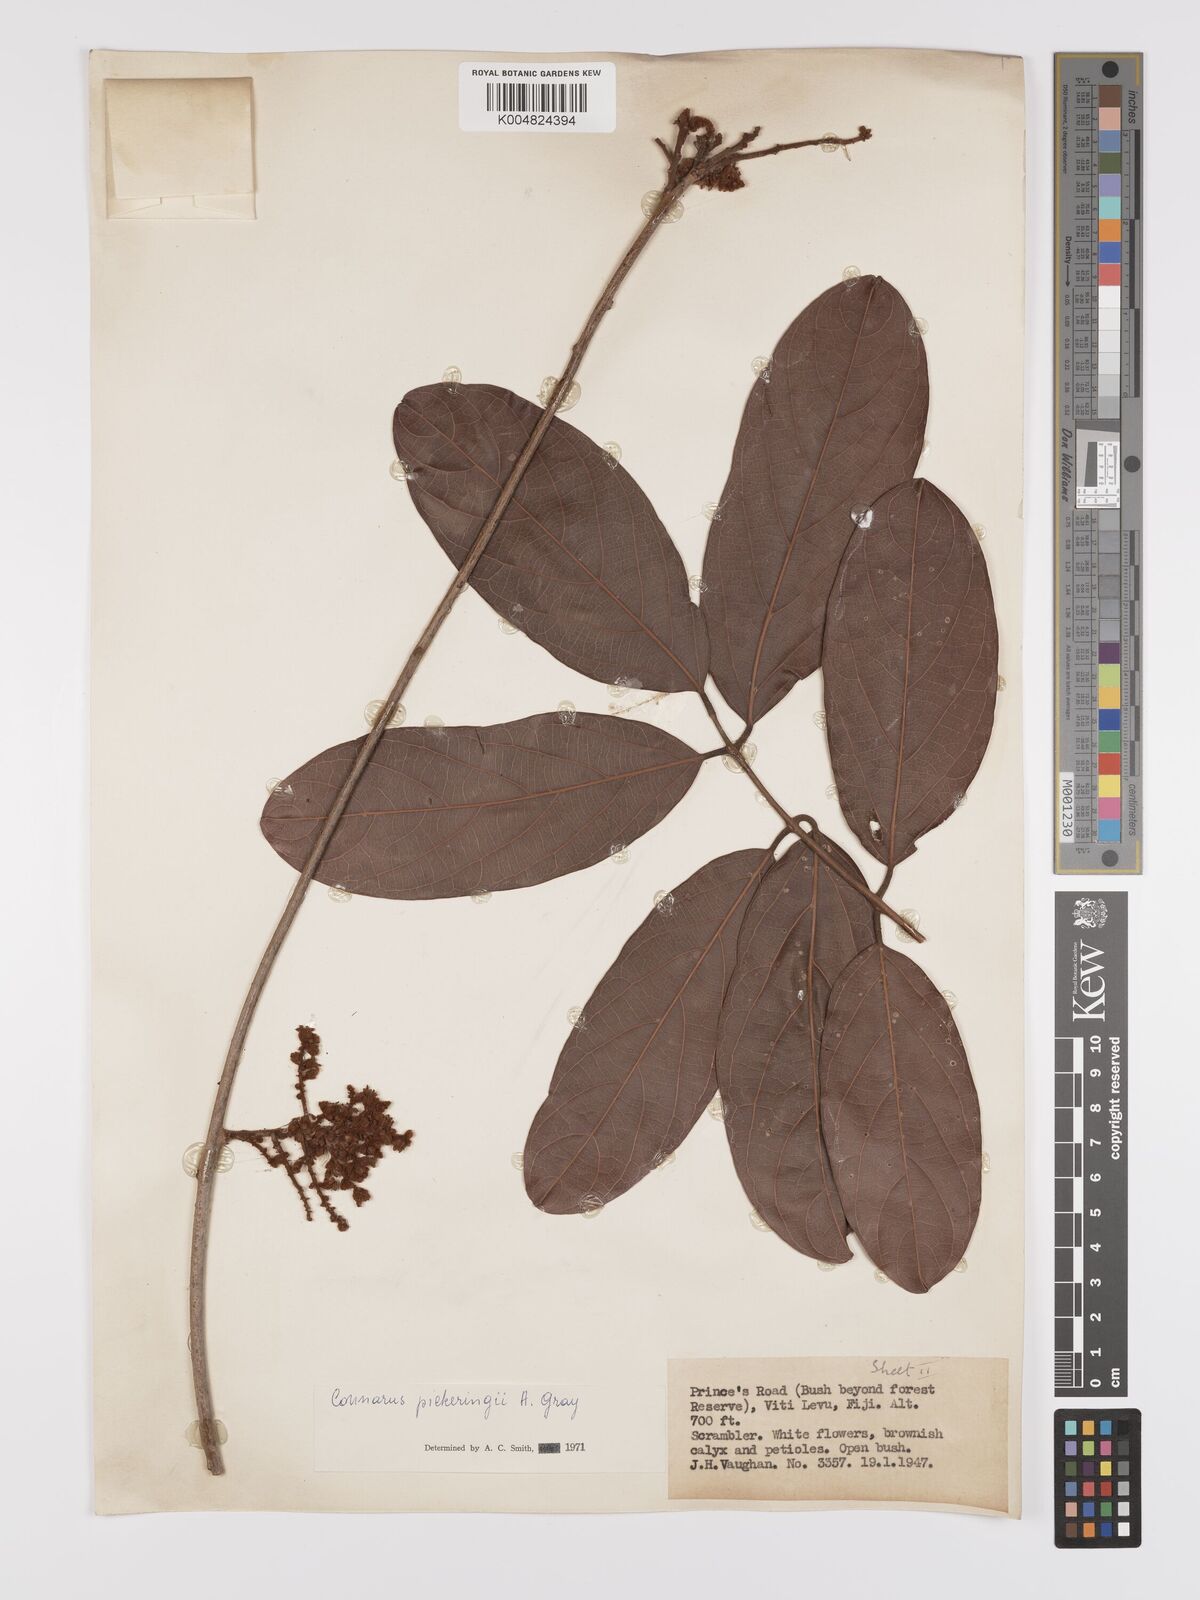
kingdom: Plantae
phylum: Tracheophyta
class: Magnoliopsida
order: Oxalidales
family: Connaraceae
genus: Connarus
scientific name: Connarus pickeringii
